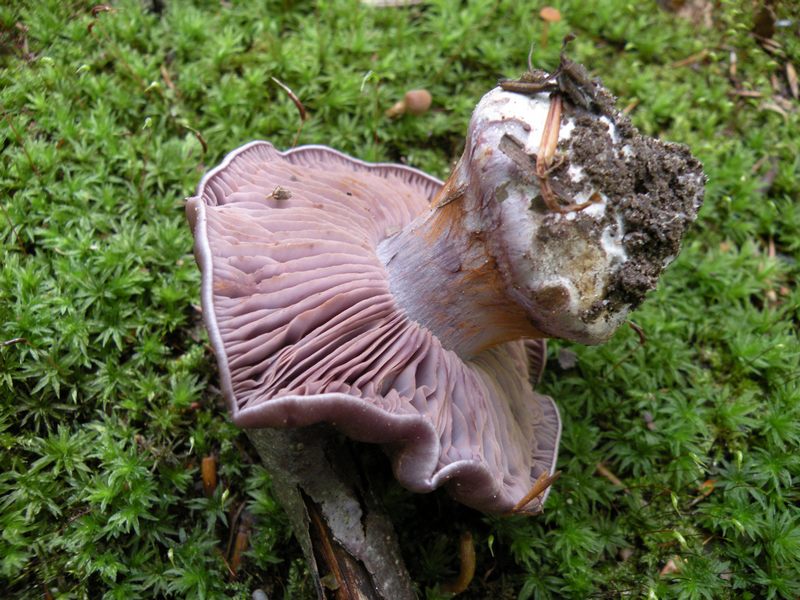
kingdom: Fungi
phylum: Basidiomycota
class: Agaricomycetes
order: Agaricales
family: Cortinariaceae
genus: Thaxterogaster
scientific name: Thaxterogaster purpurascens
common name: purpurbrun slørhat
